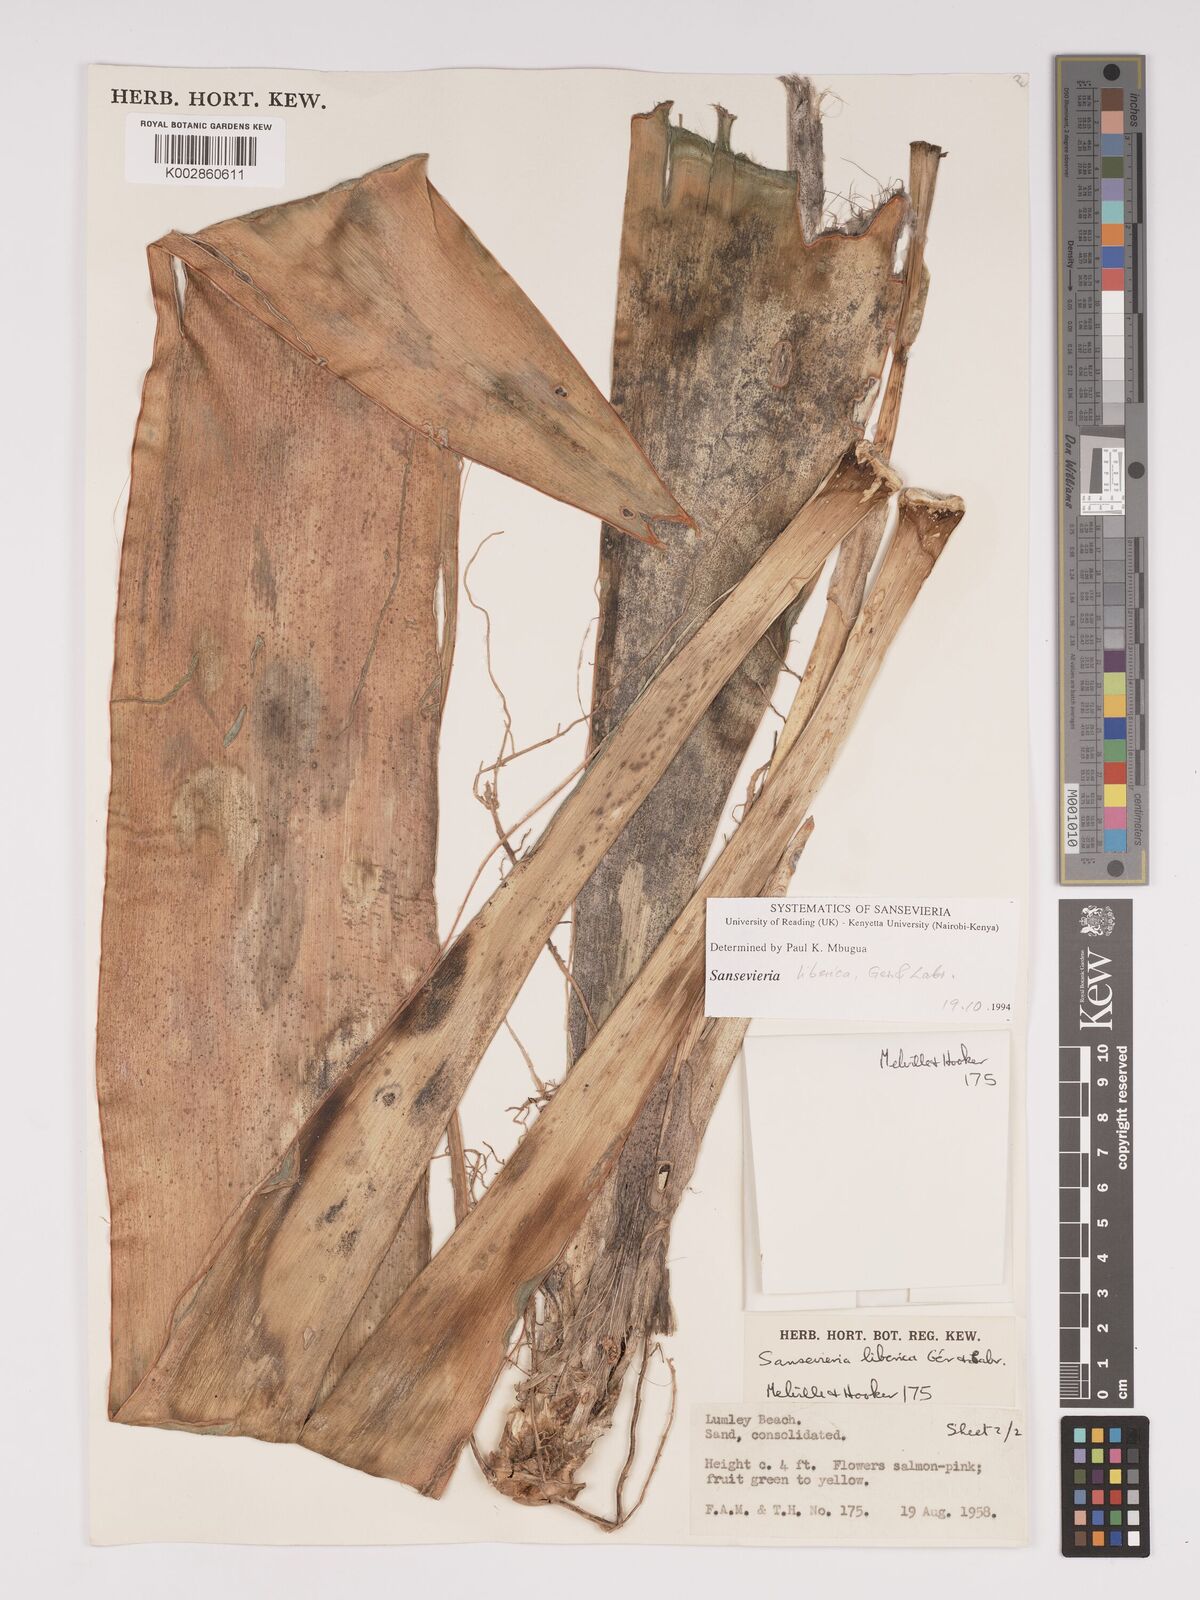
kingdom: Plantae
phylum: Tracheophyta
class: Liliopsida
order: Asparagales
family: Asparagaceae
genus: Dracaena
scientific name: Dracaena liberica
